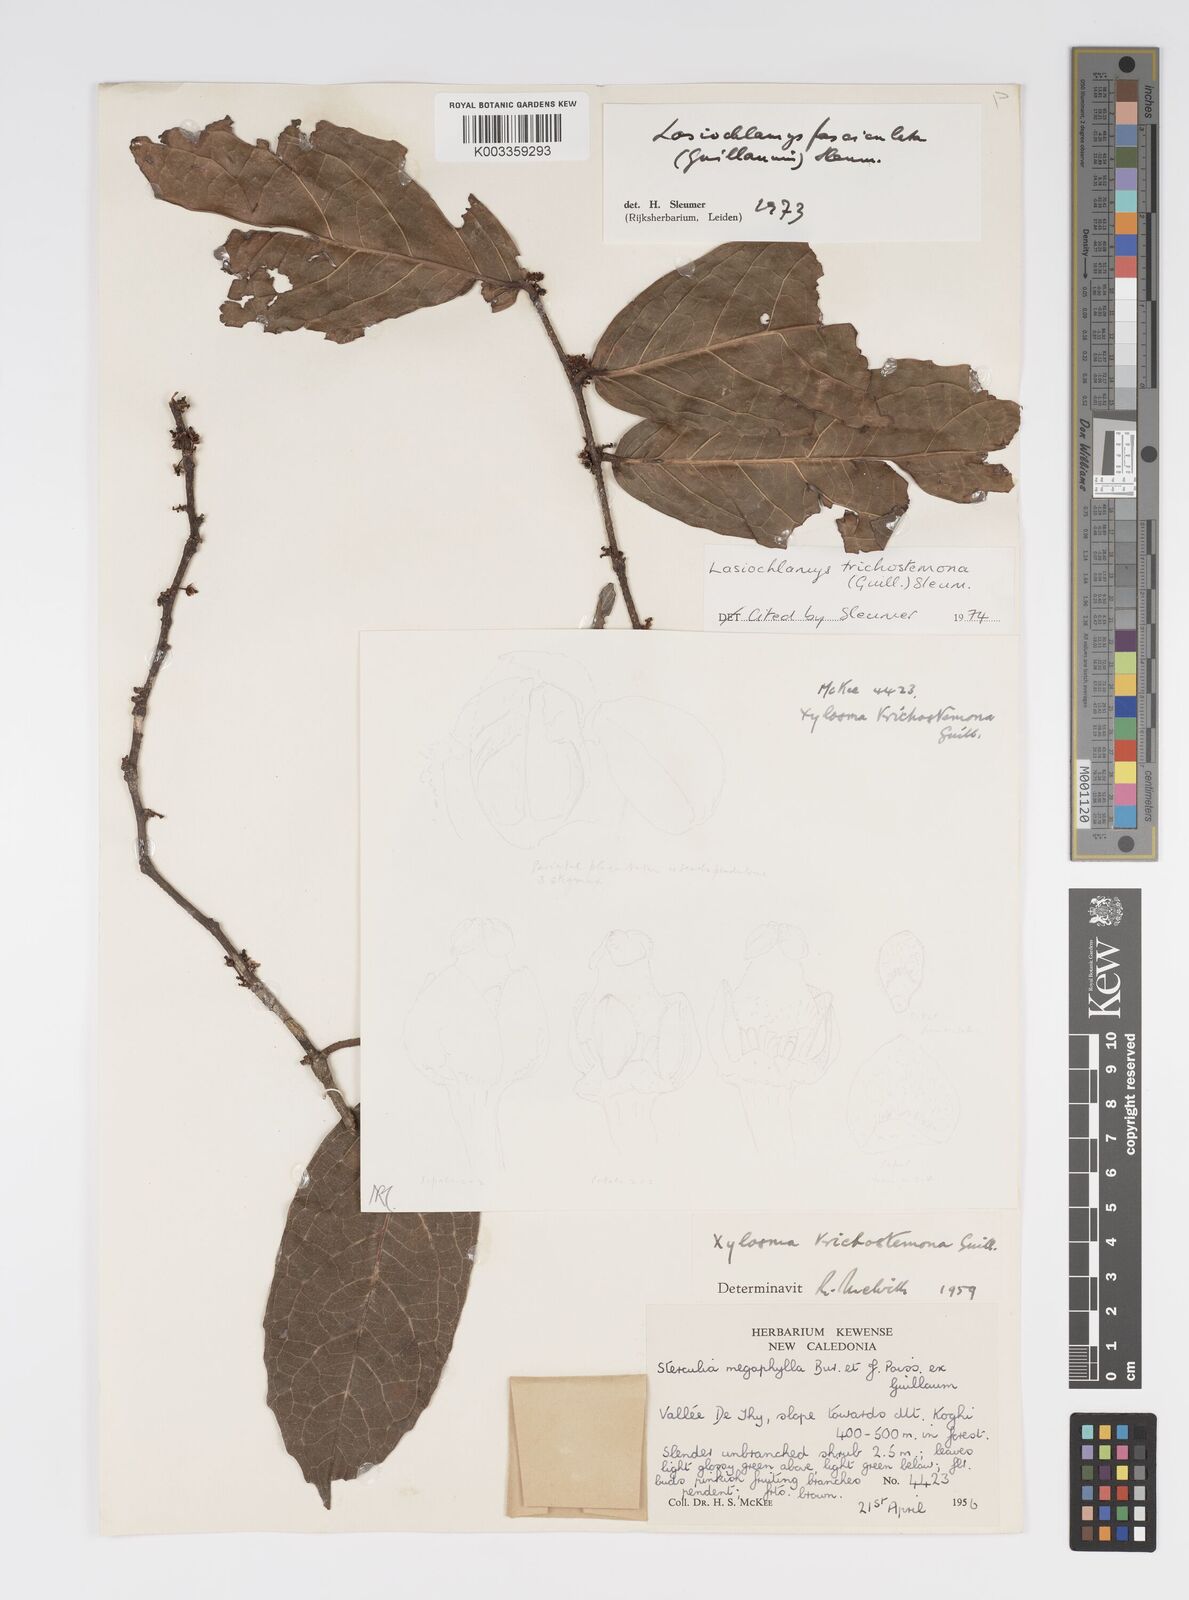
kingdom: Plantae
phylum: Tracheophyta
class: Magnoliopsida
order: Malpighiales
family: Salicaceae
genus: Lasiochlamys
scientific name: Lasiochlamys trichostemona
